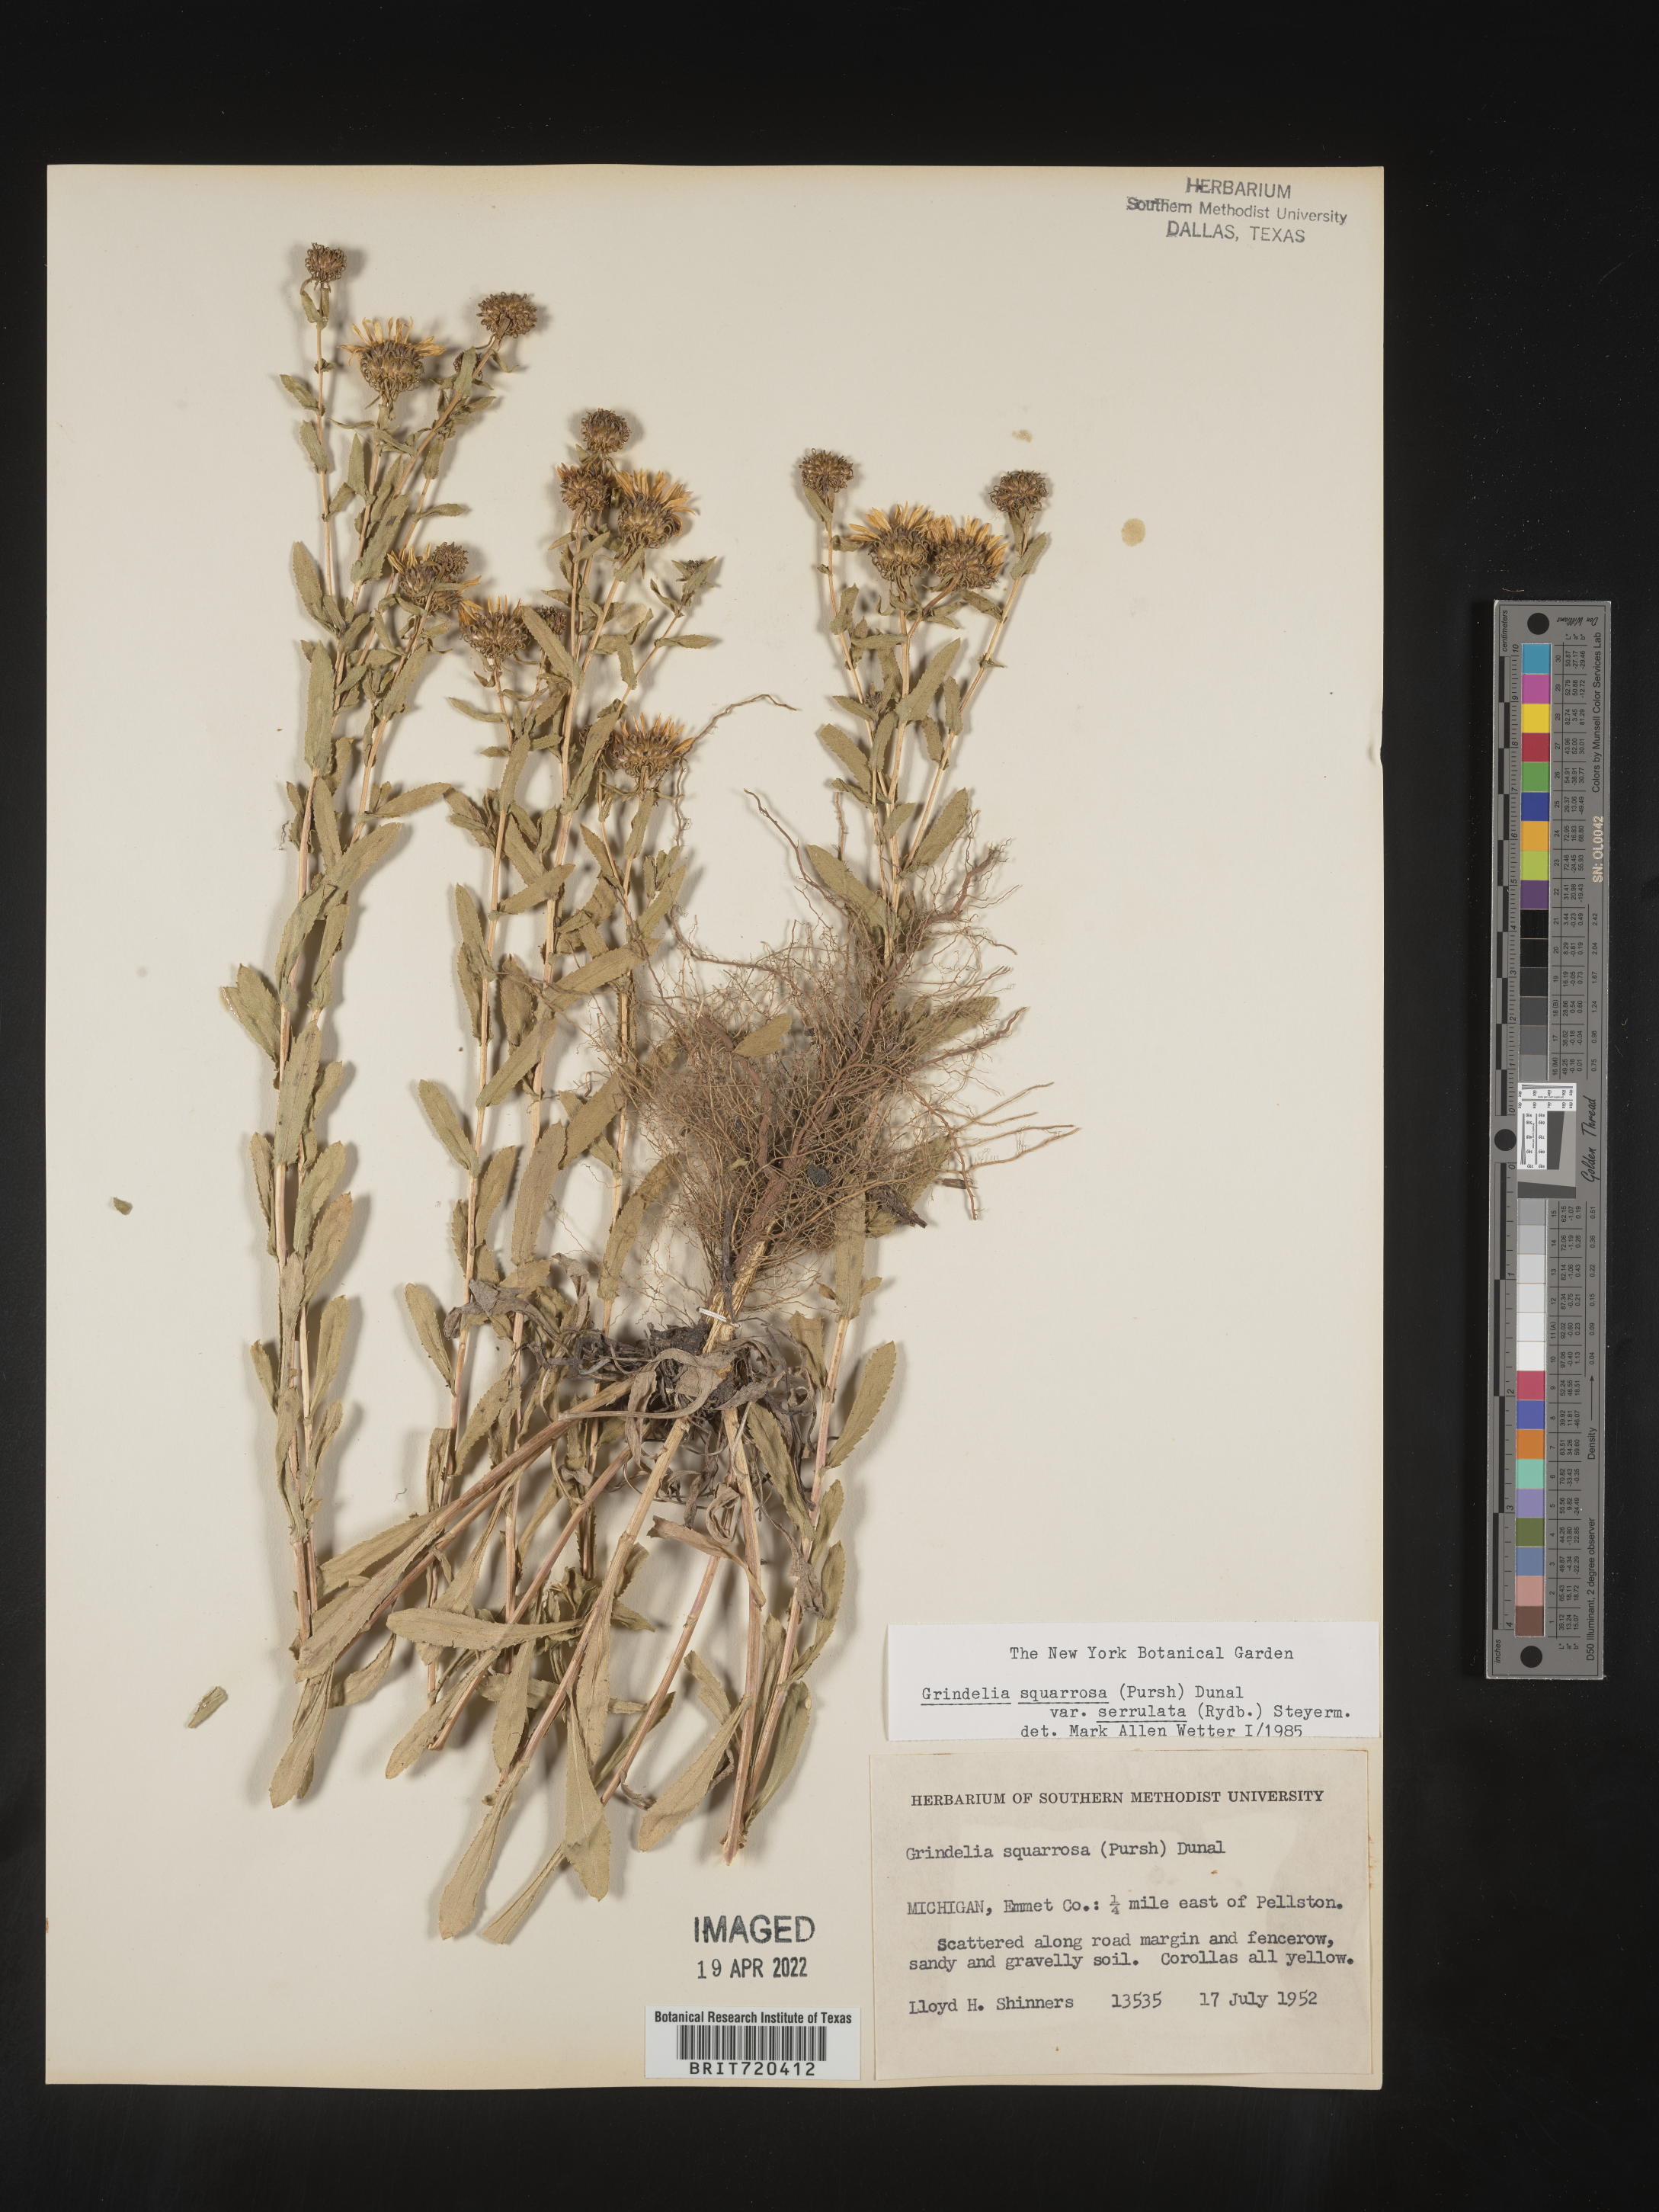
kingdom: Plantae
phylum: Tracheophyta
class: Magnoliopsida
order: Asterales
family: Asteraceae
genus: Grindelia
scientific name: Grindelia squarrosa
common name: Curly-cup gumweed
